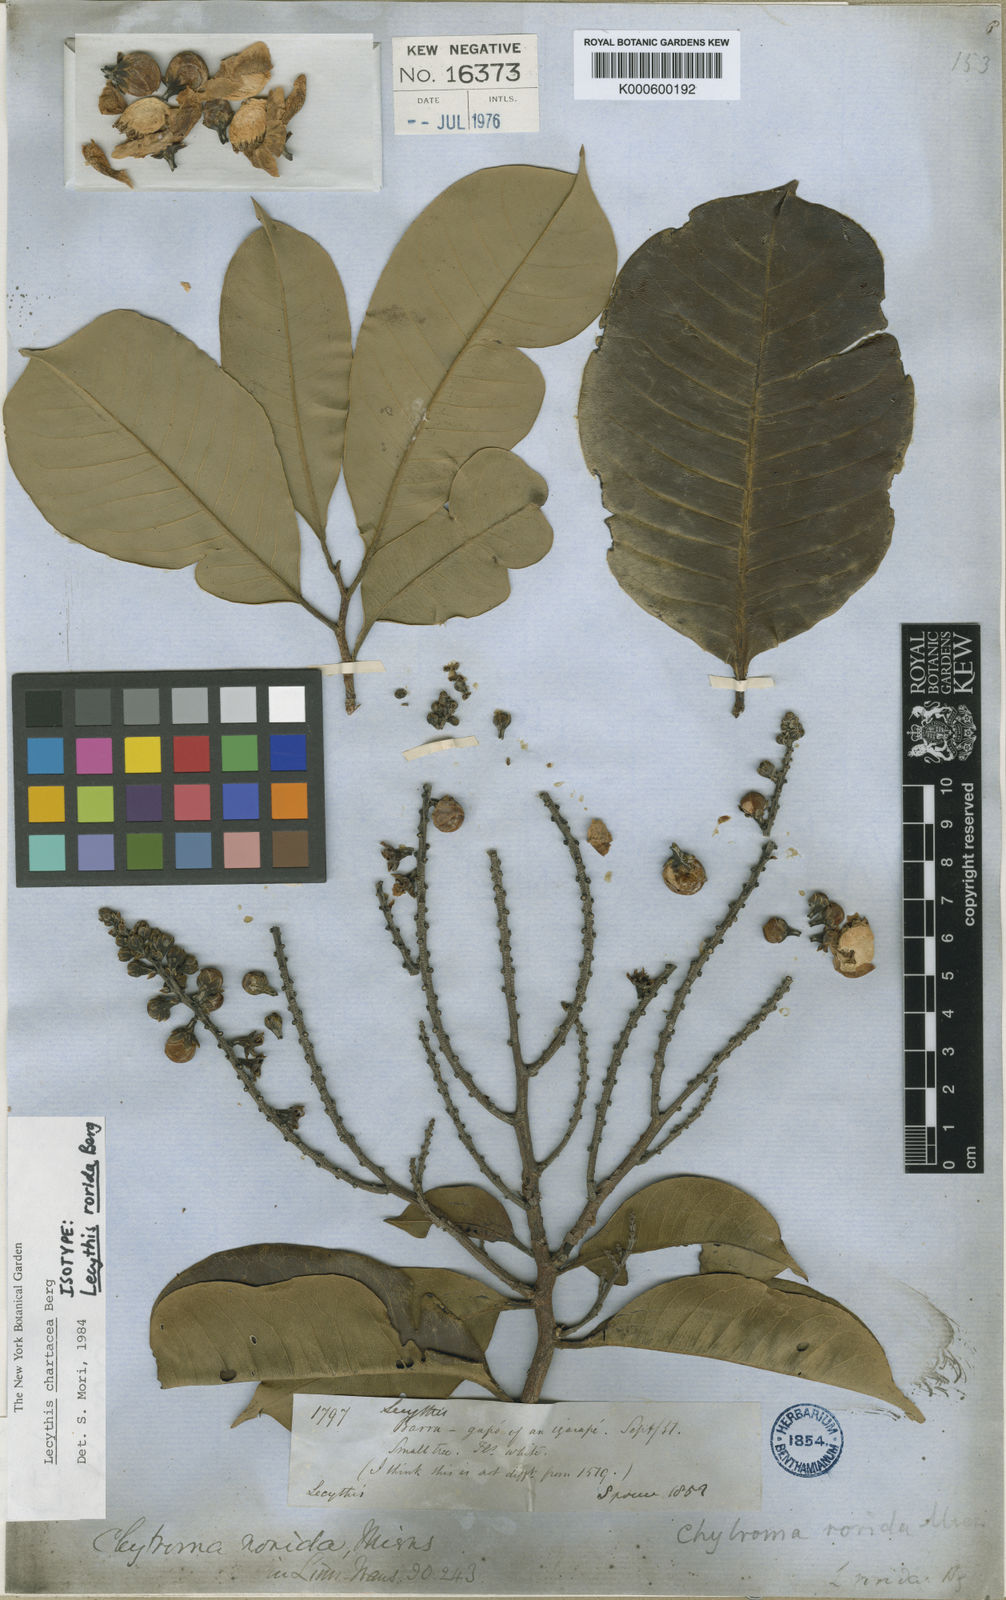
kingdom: Plantae
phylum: Tracheophyta
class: Magnoliopsida
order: Ericales
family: Lecythidaceae
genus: Lecythis
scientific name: Lecythis chartacea
